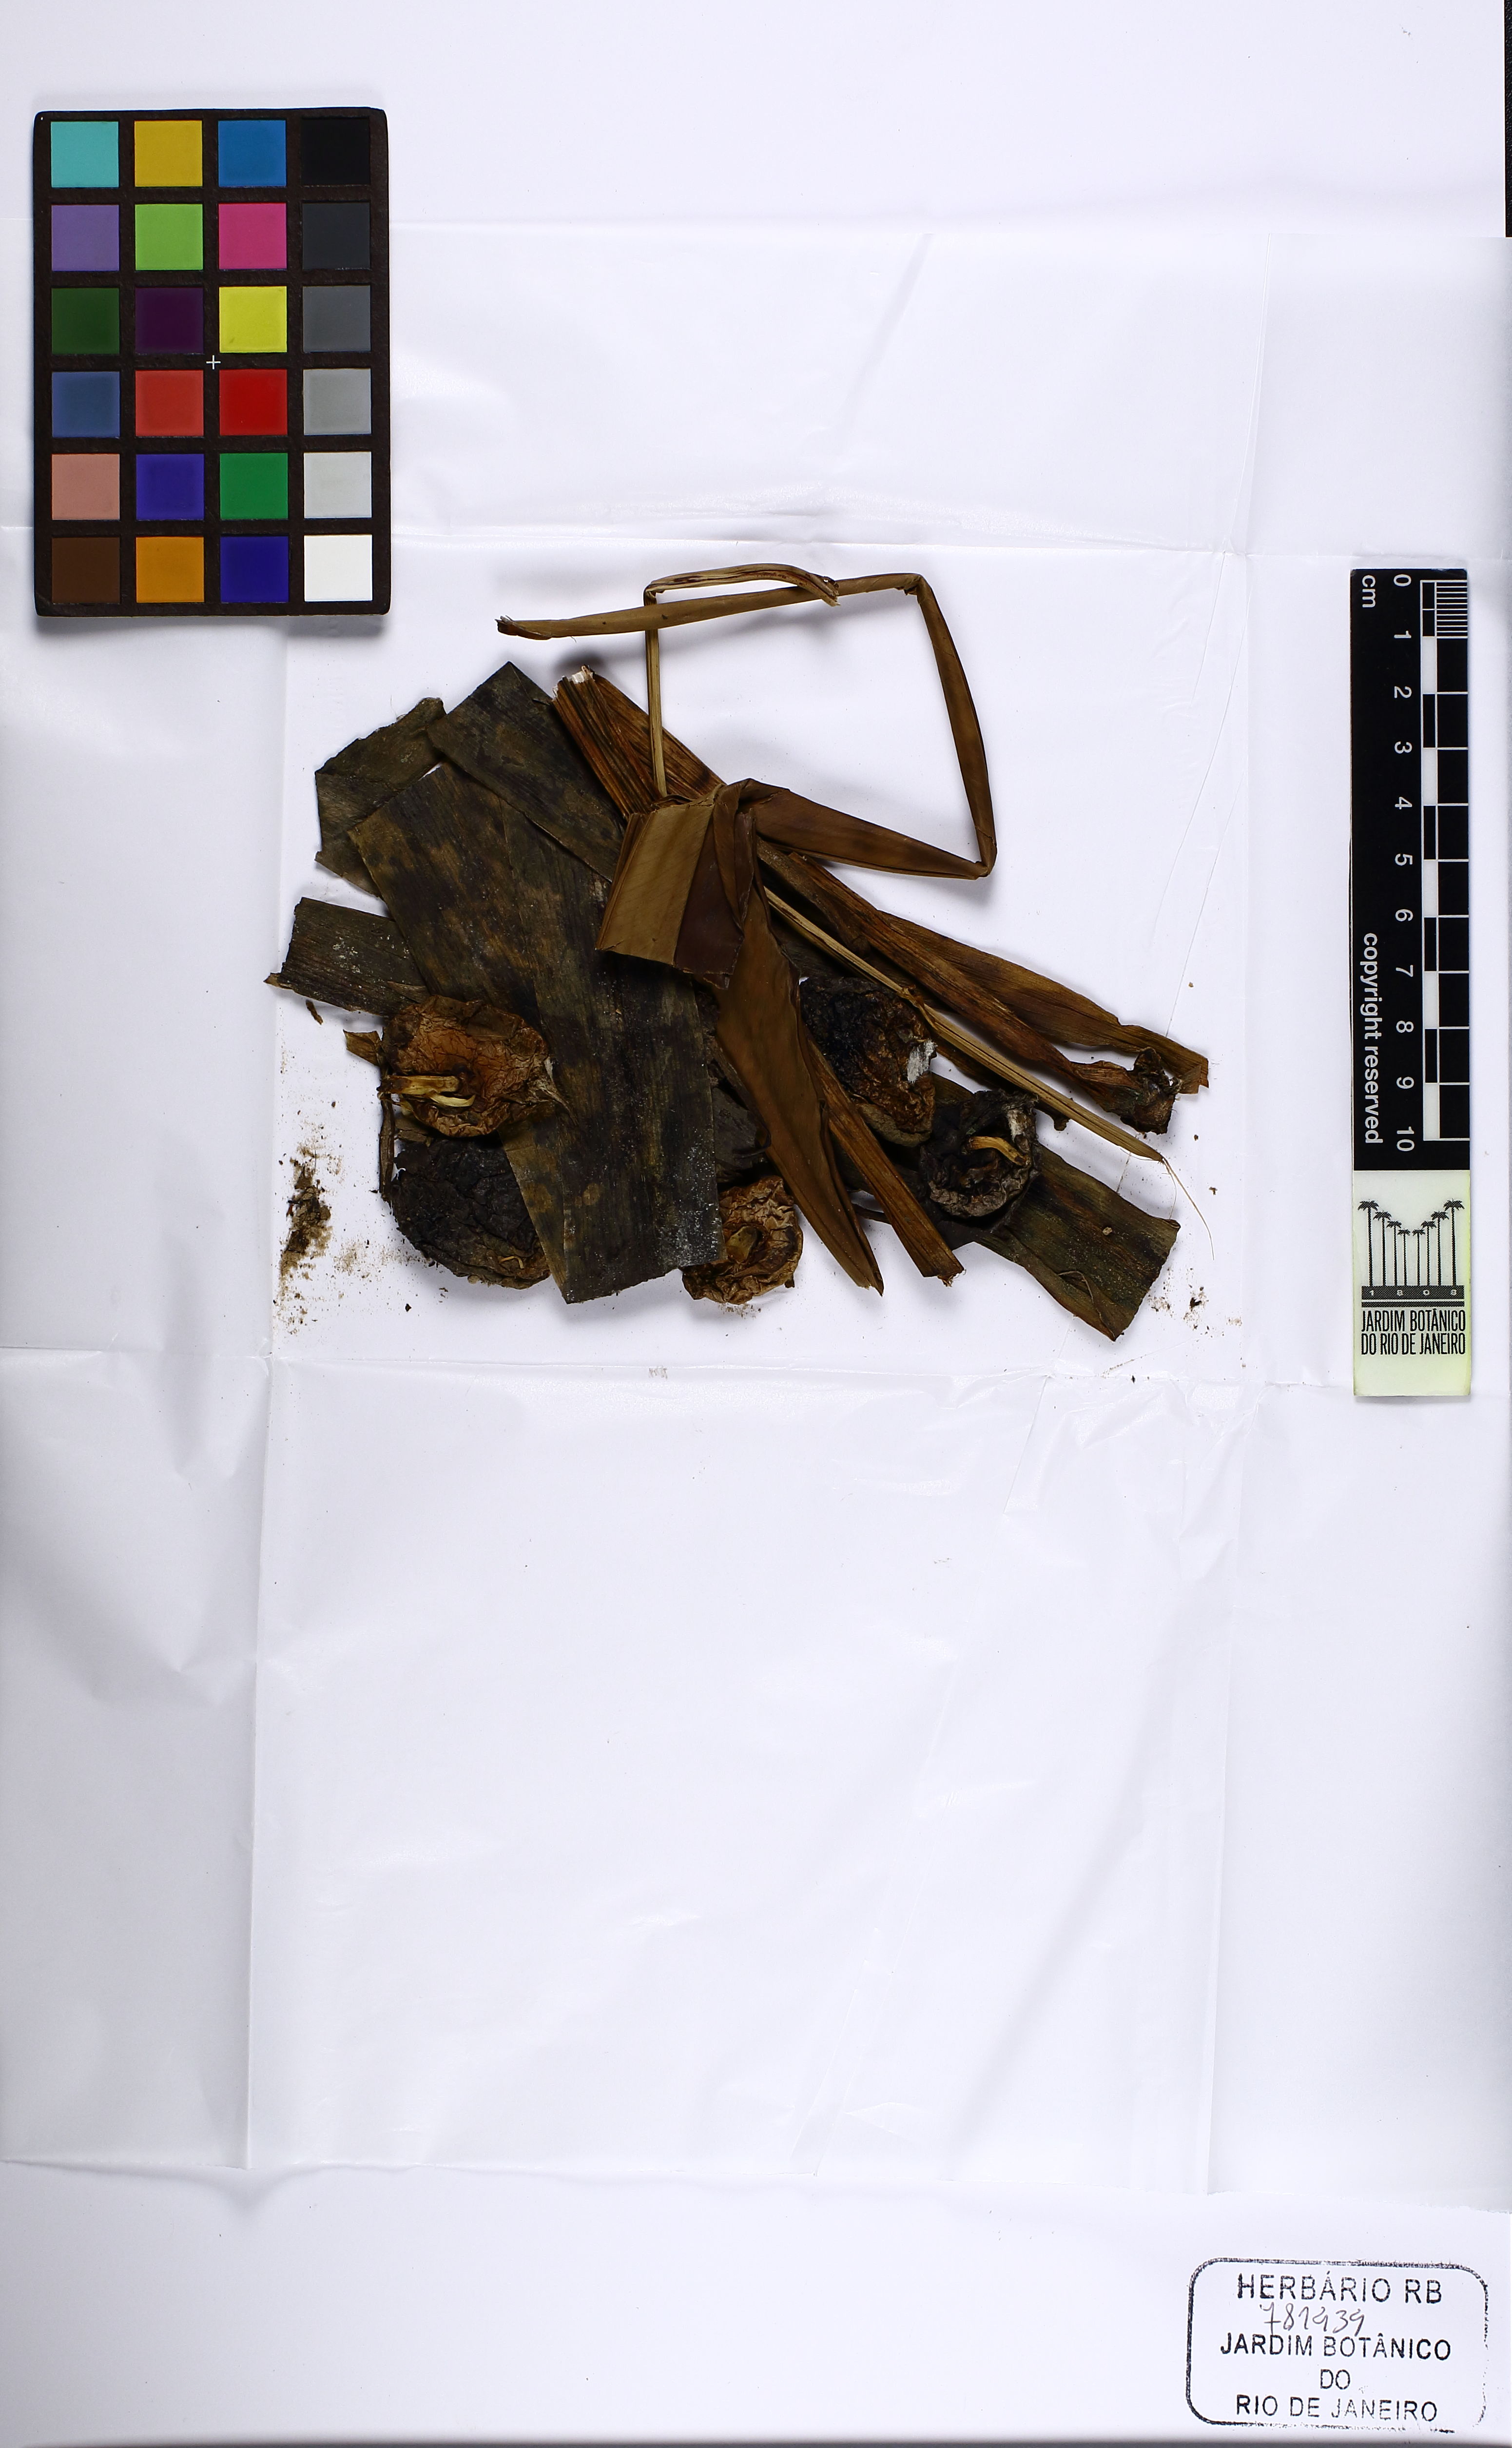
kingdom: Plantae
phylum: Tracheophyta
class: Liliopsida
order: Asparagales
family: Amaryllidaceae
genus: Crinum
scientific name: Crinum americanum
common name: Florida swamp-lily
